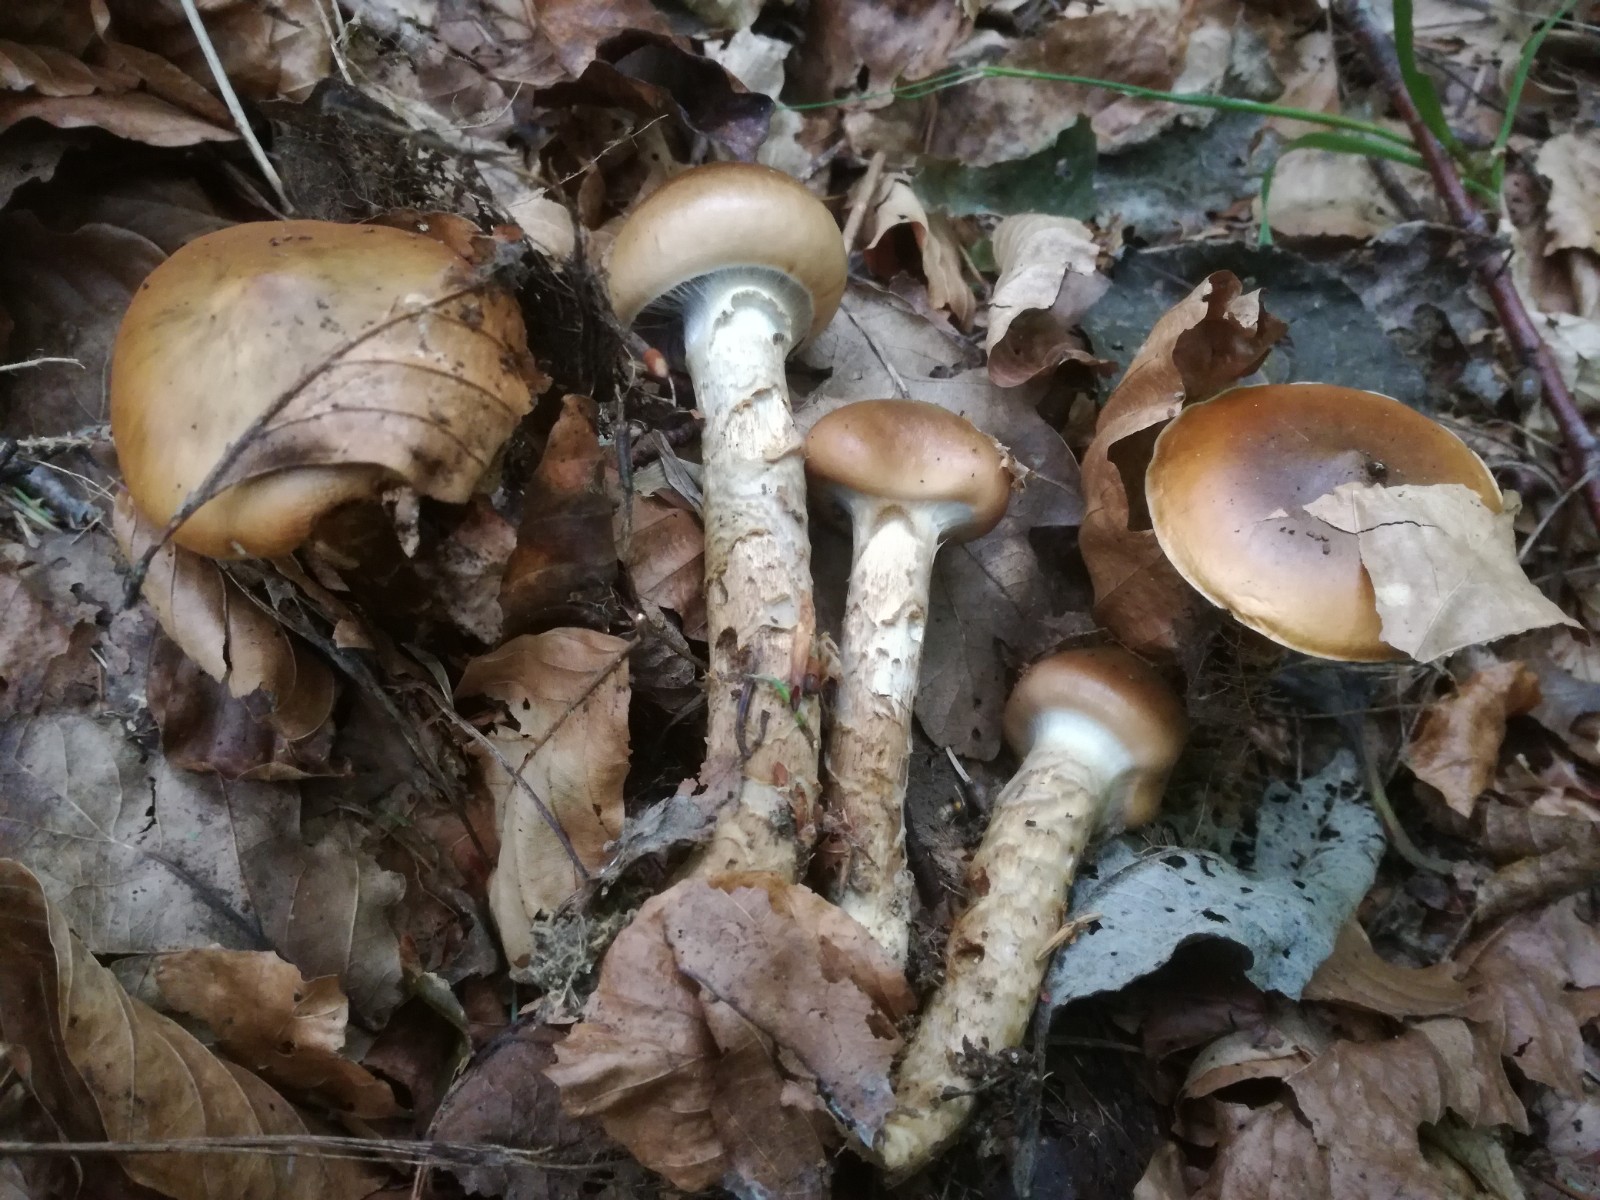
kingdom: Fungi
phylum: Basidiomycota
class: Agaricomycetes
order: Agaricales
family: Cortinariaceae
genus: Cortinarius
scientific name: Cortinarius trivialis
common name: brunslimet slørhat
